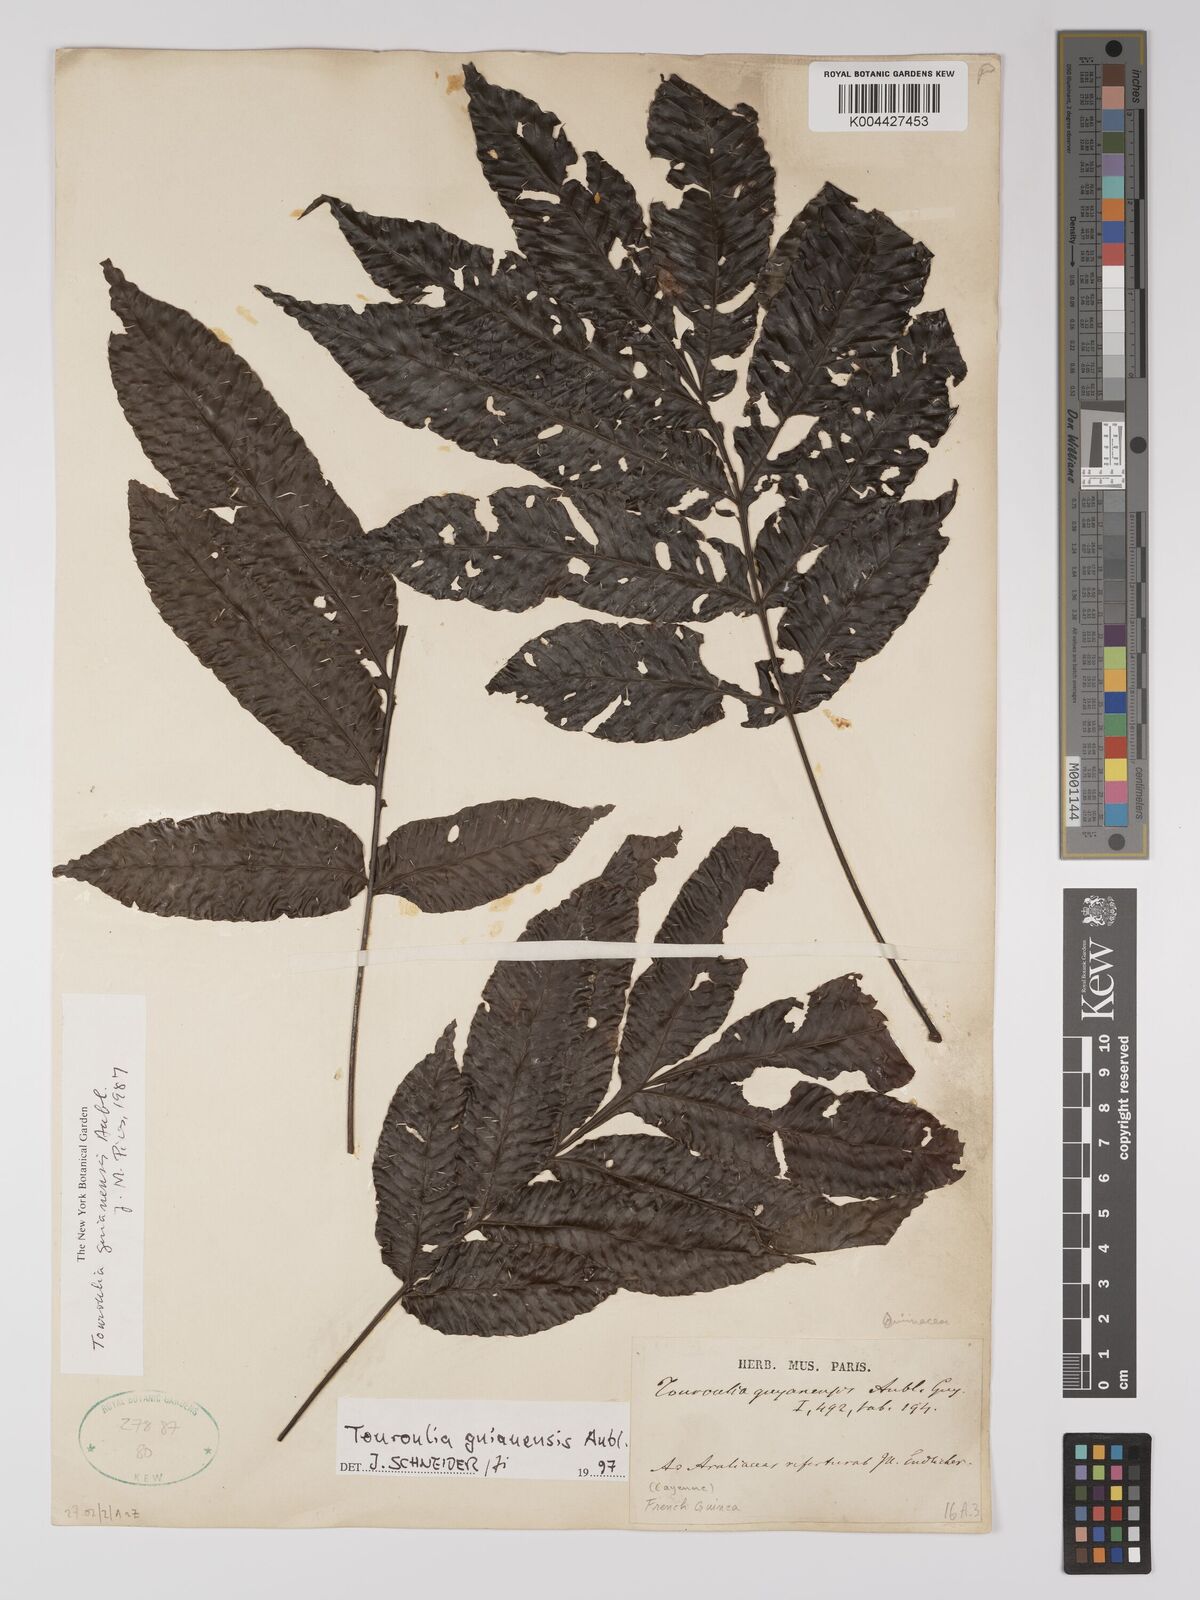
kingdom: Plantae
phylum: Tracheophyta
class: Magnoliopsida
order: Malpighiales
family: Quiinaceae
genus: Touroulia
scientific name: Touroulia guianensis
